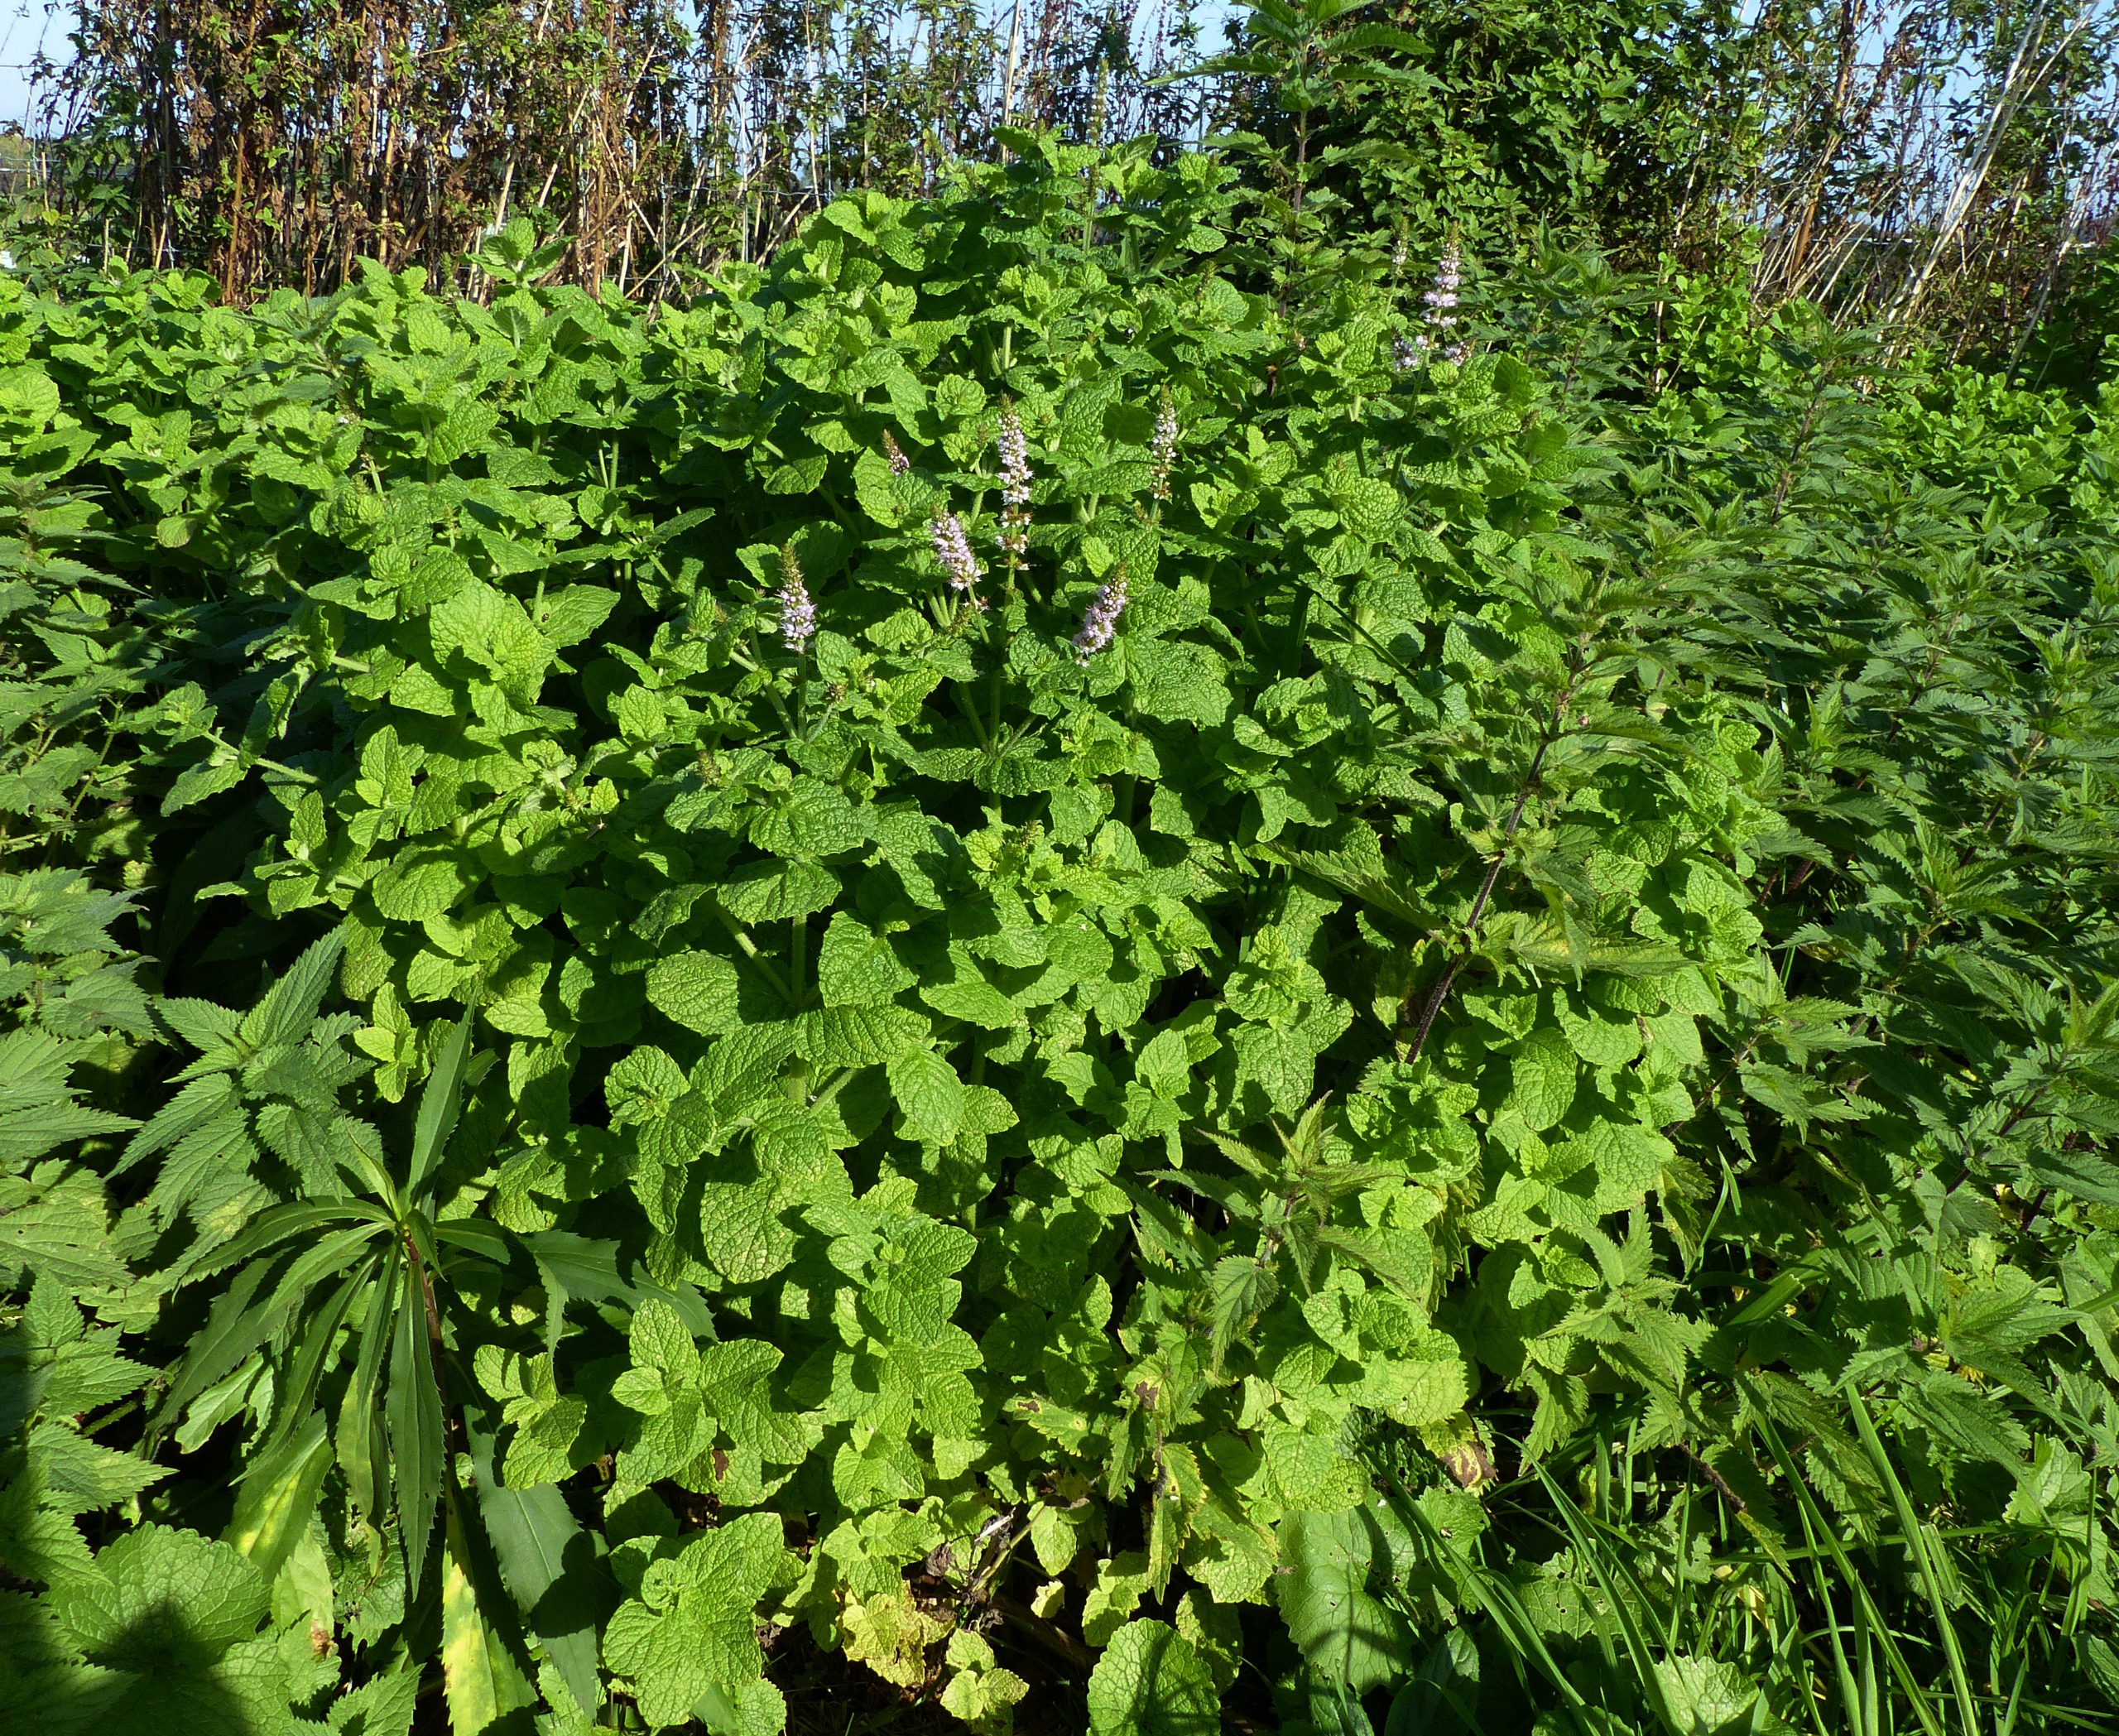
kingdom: Plantae
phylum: Tracheophyta
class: Magnoliopsida
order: Lamiales
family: Lamiaceae
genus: Mentha
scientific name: Mentha rotundifolia
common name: Grå mynte × rundbladet mynte
